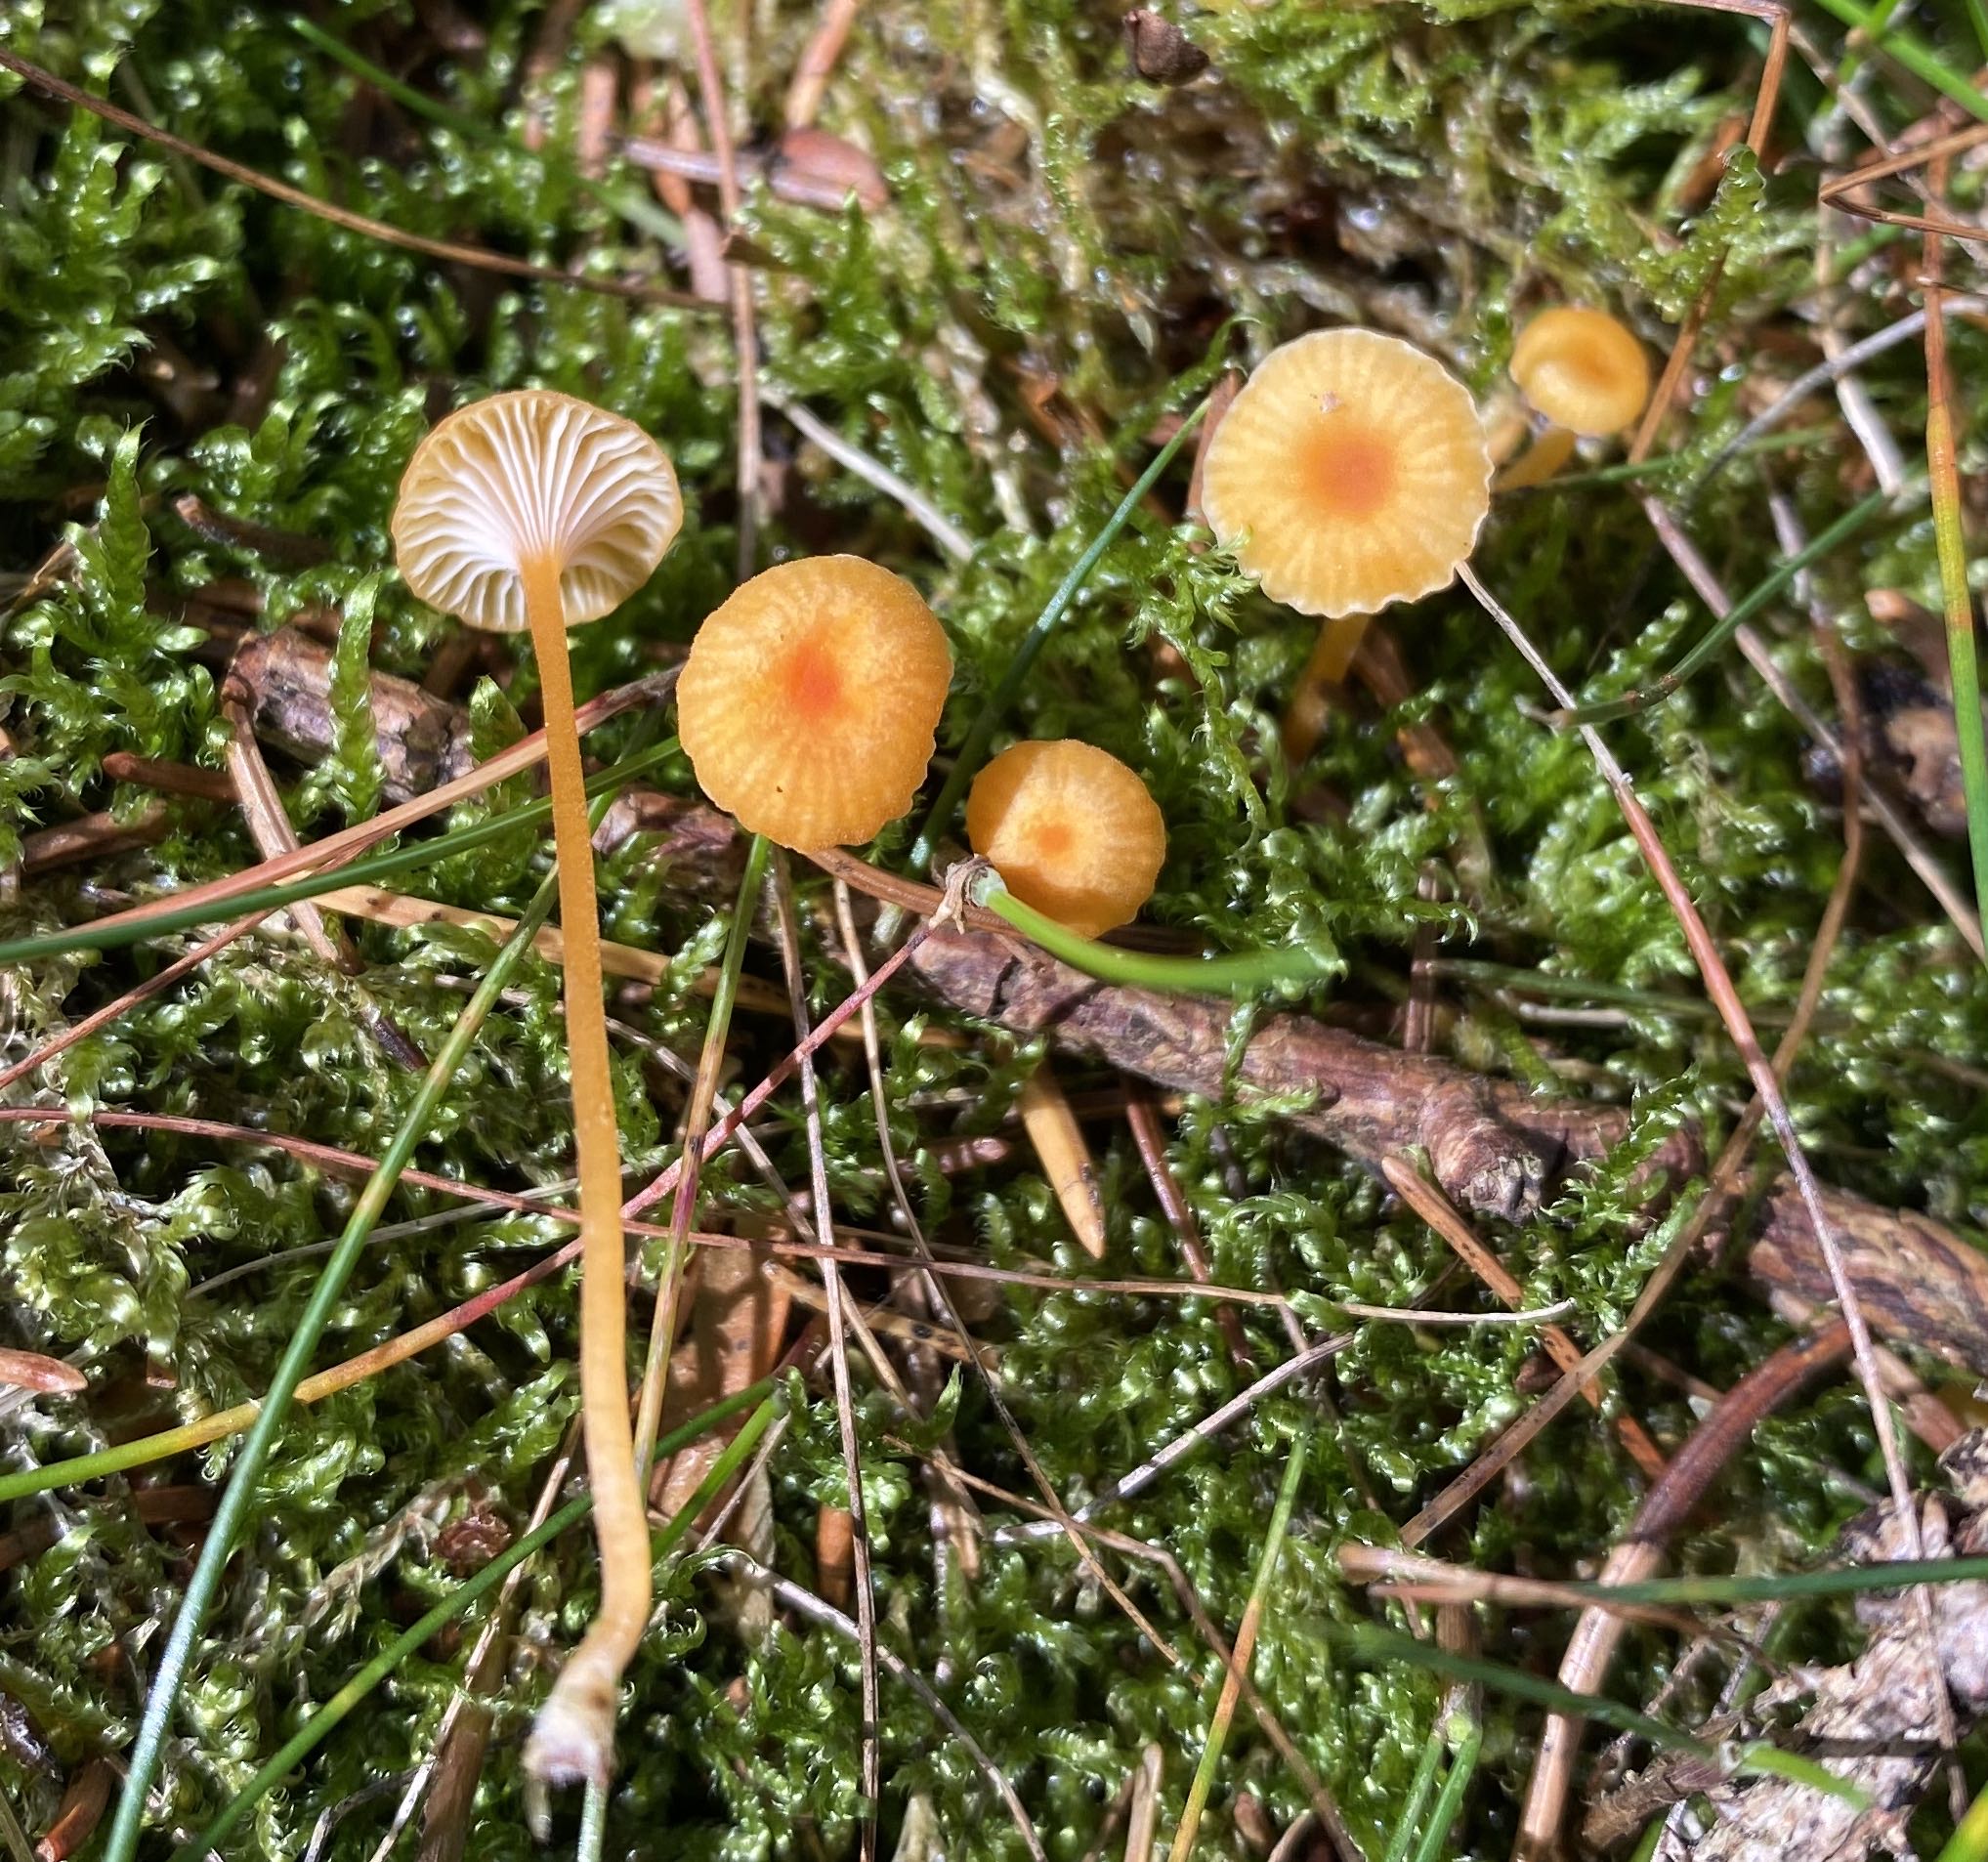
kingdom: Fungi
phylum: Basidiomycota
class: Agaricomycetes
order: Hymenochaetales
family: Rickenellaceae
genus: Rickenella
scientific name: Rickenella fibula
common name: orange mosnavlehat
